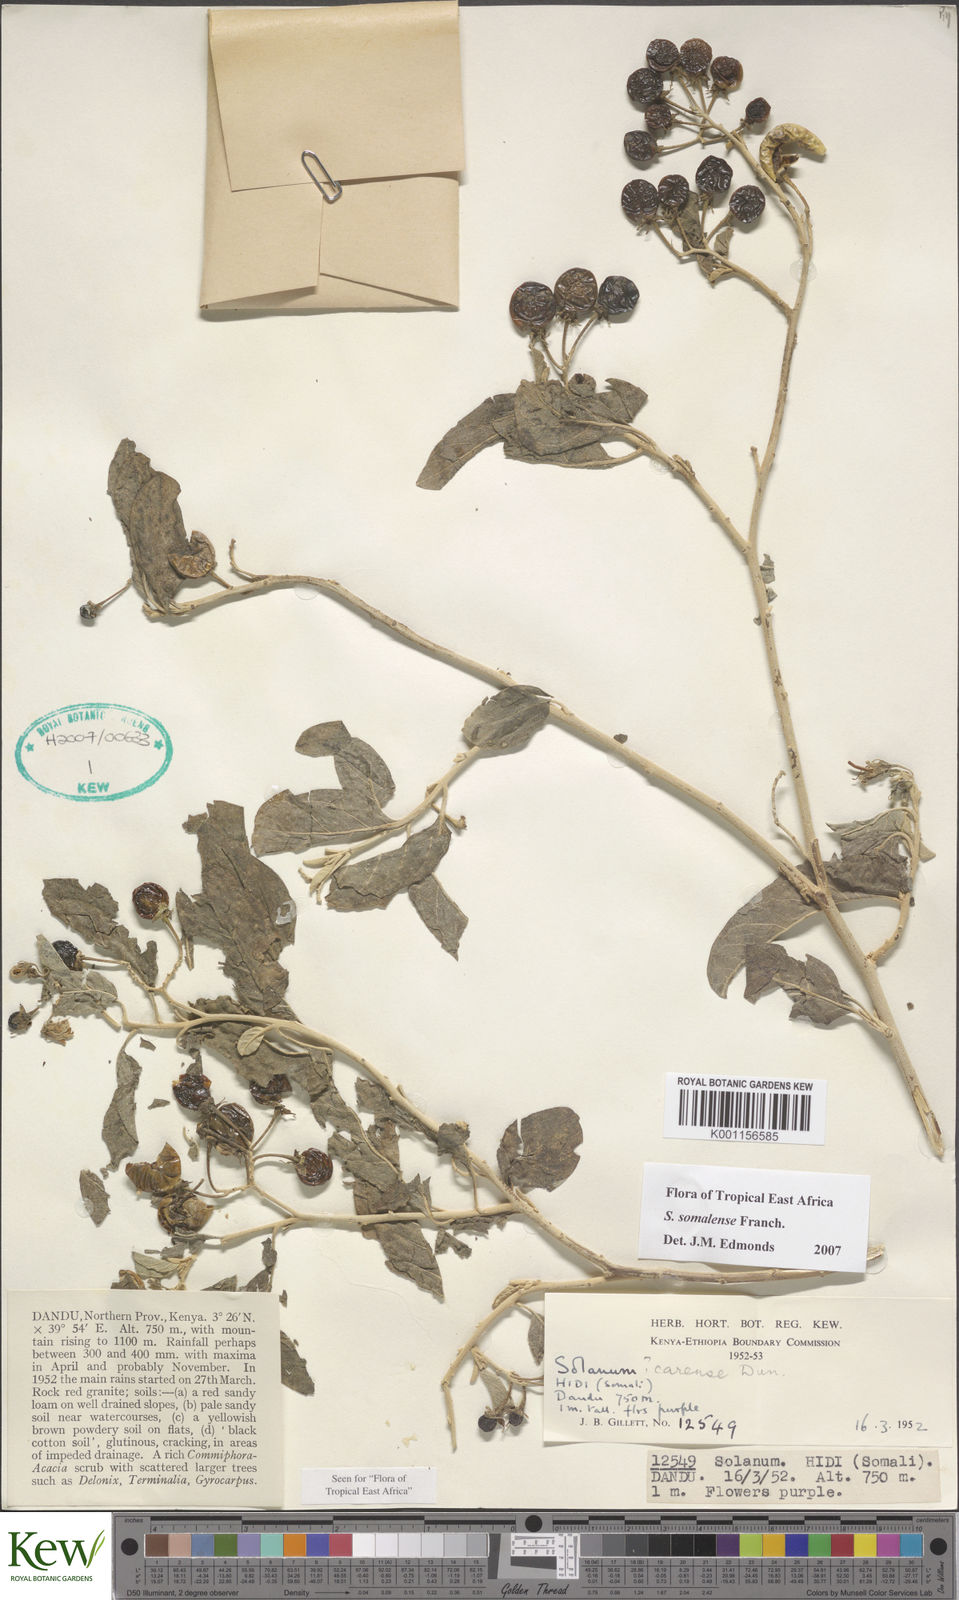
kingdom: Plantae
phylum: Tracheophyta
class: Magnoliopsida
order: Solanales
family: Solanaceae
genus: Solanum
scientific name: Solanum somalense
